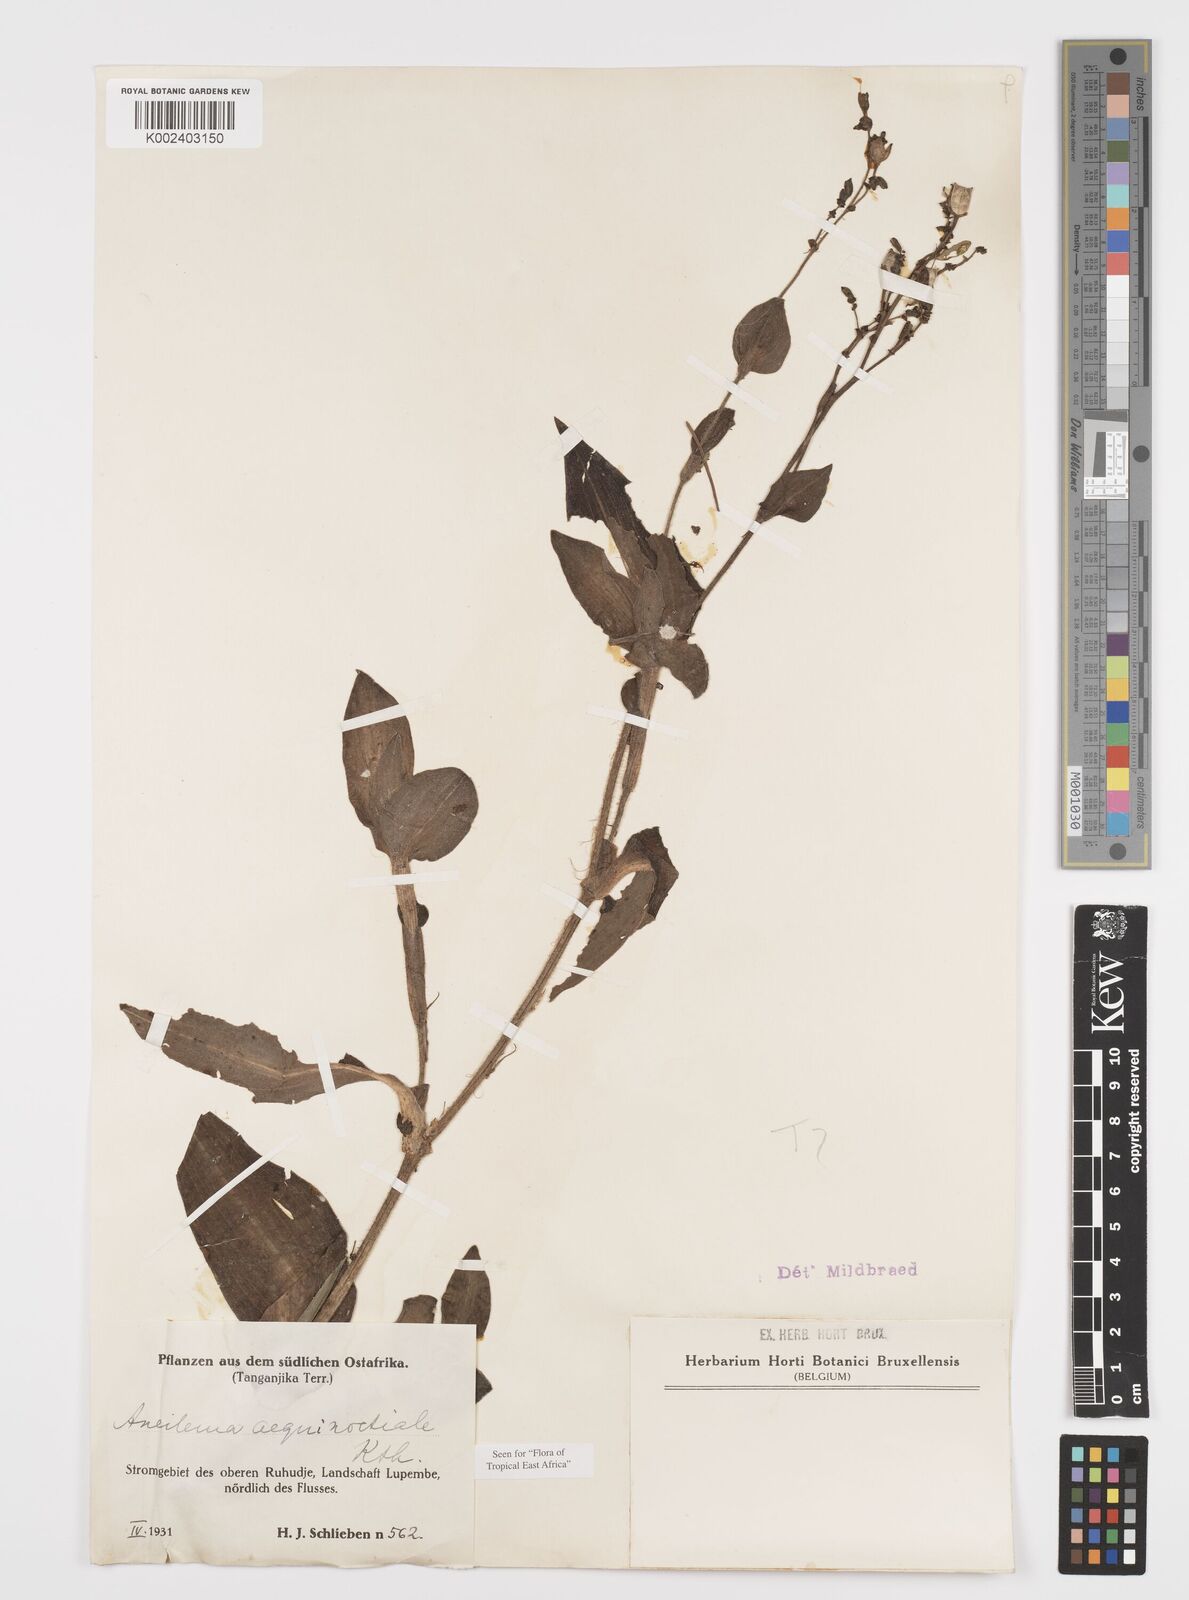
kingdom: Plantae
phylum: Tracheophyta
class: Liliopsida
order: Commelinales
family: Commelinaceae
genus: Aneilema
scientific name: Aneilema aequinoctiale
